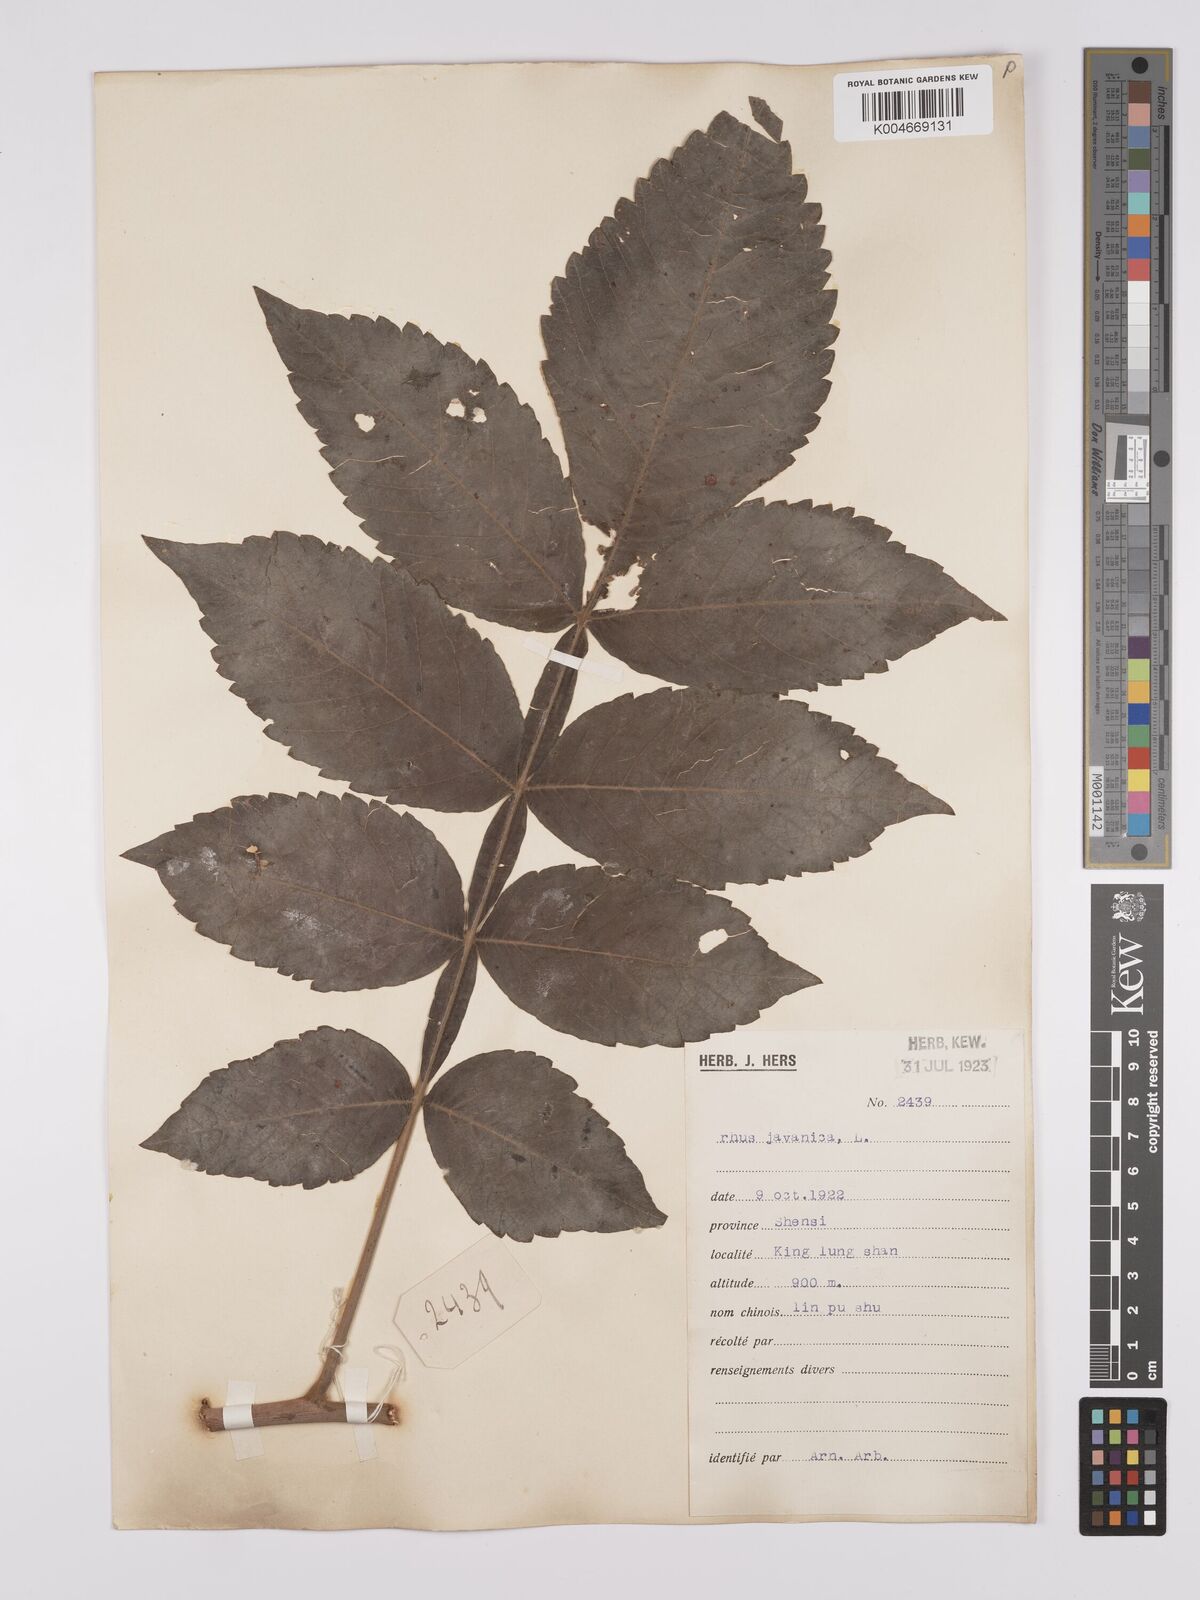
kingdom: Plantae
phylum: Tracheophyta
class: Magnoliopsida
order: Sapindales
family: Anacardiaceae
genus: Rhus
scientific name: Rhus chinensis
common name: Chinese gall
